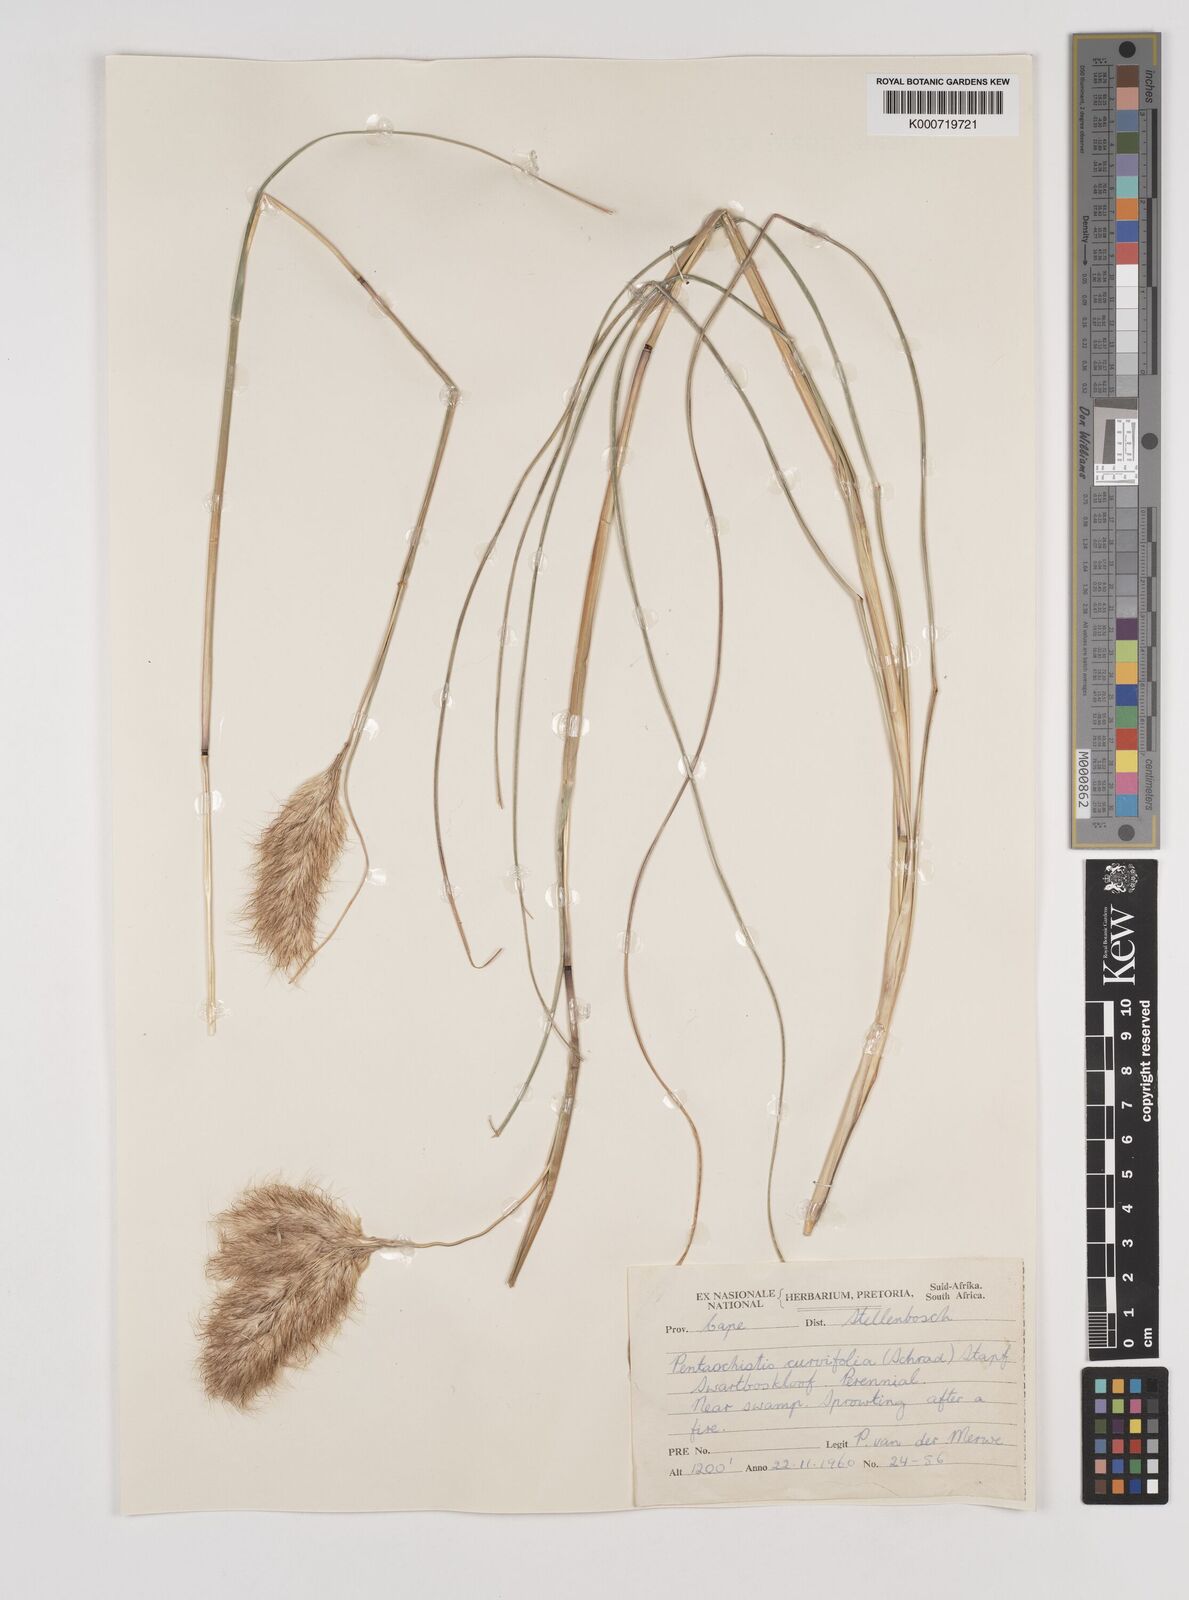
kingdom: Plantae
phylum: Tracheophyta
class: Liliopsida
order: Poales
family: Poaceae
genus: Pentameris
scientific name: Pentameris curvifolia
